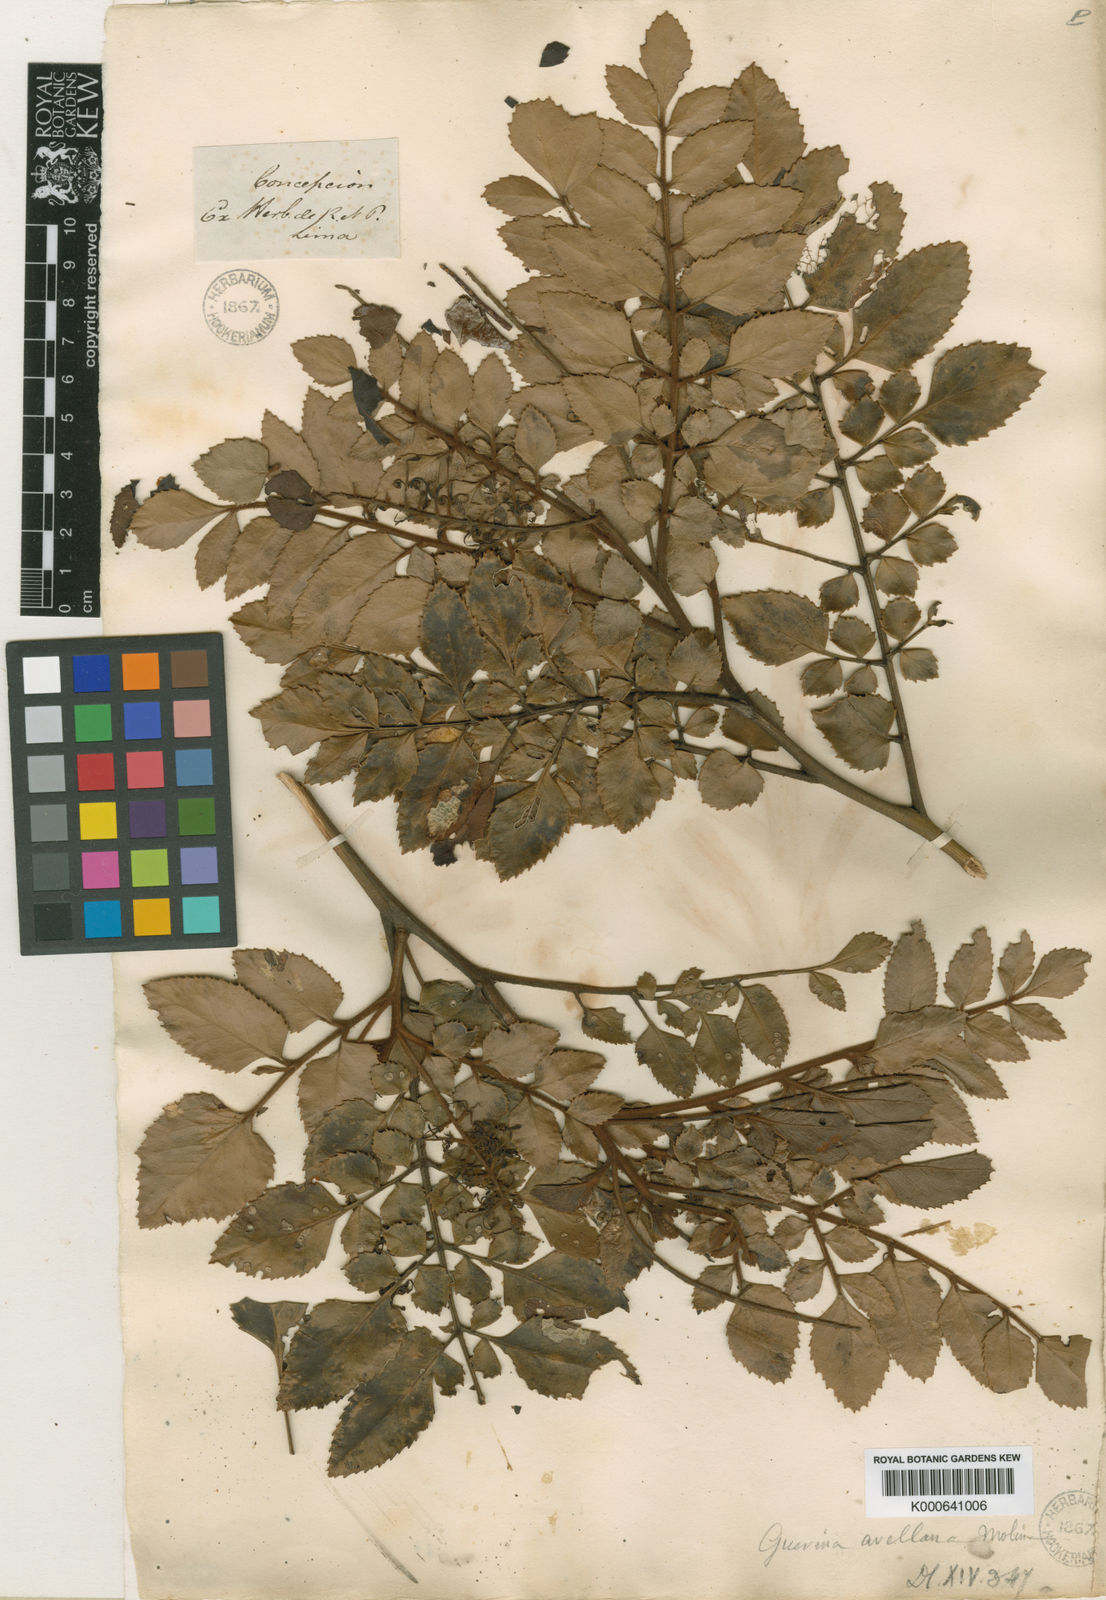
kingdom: Plantae
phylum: Tracheophyta
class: Magnoliopsida
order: Proteales
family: Proteaceae
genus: Gevuina
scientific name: Gevuina avellana
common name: Chilean hazel
